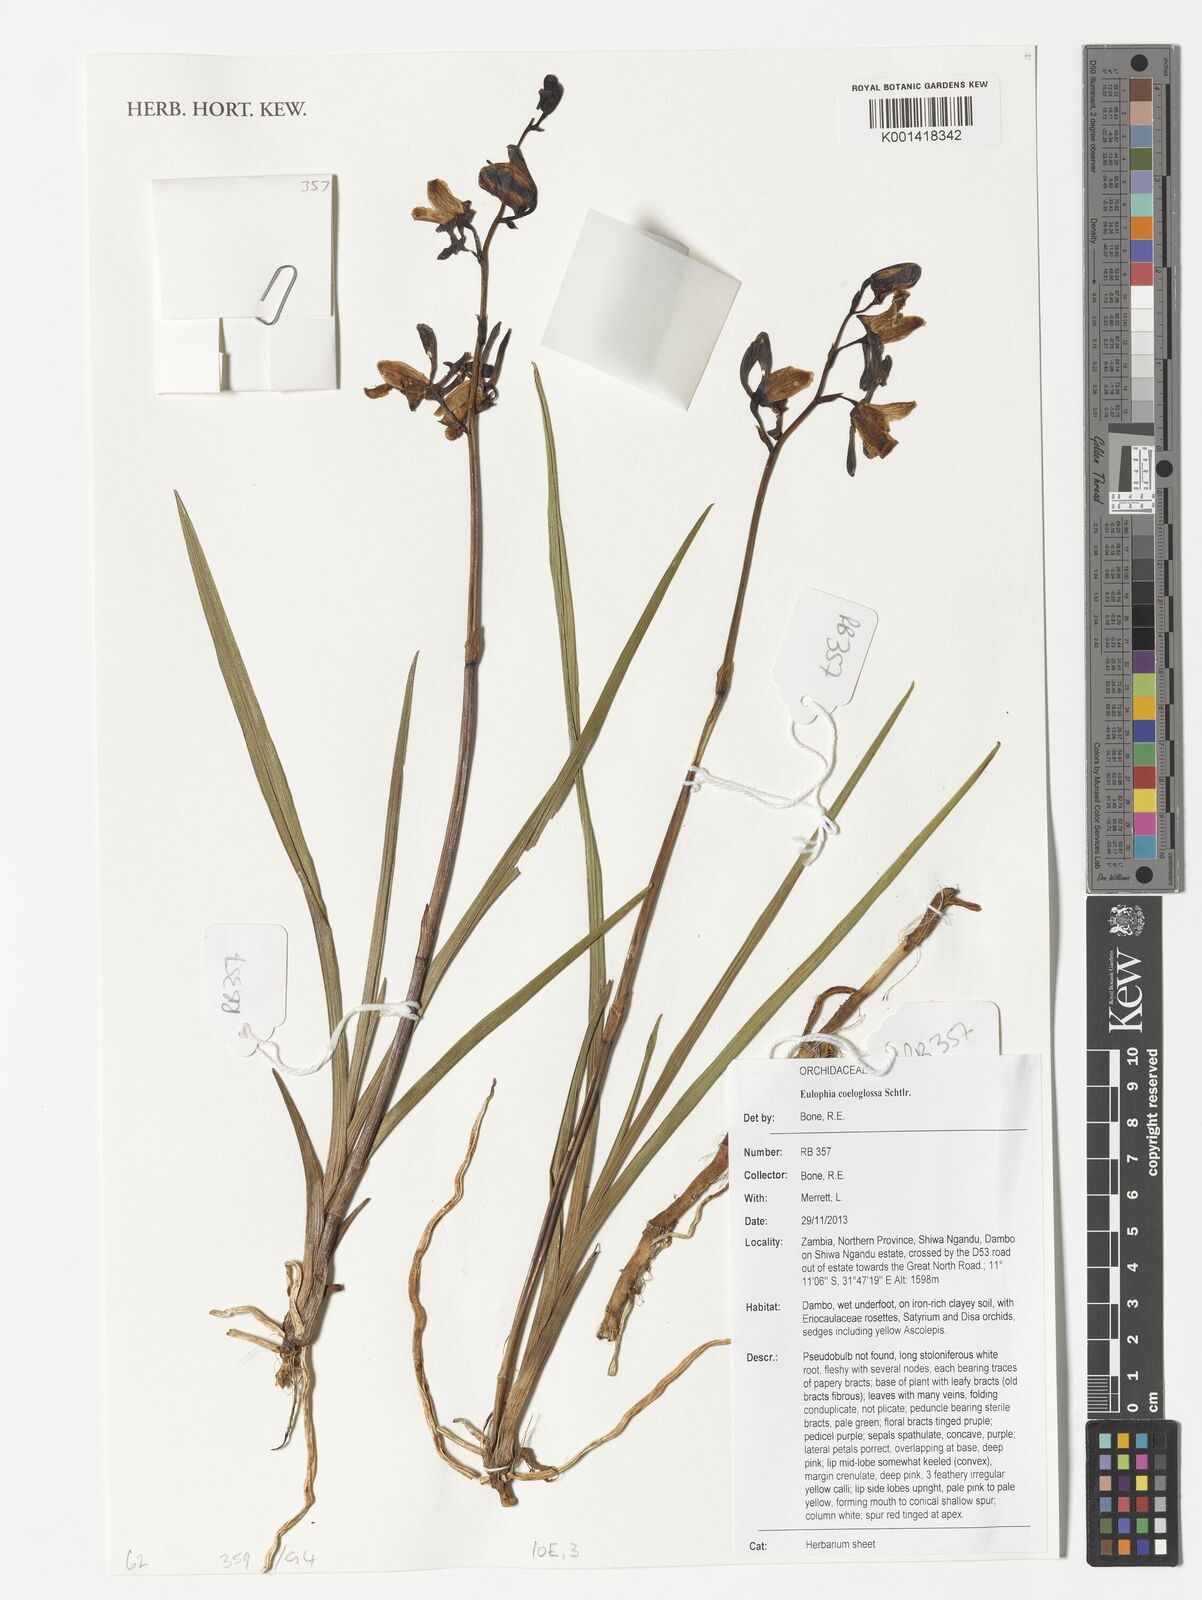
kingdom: Plantae
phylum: Tracheophyta
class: Liliopsida
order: Asparagales
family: Orchidaceae
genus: Eulophia
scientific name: Eulophia coeloglossa
